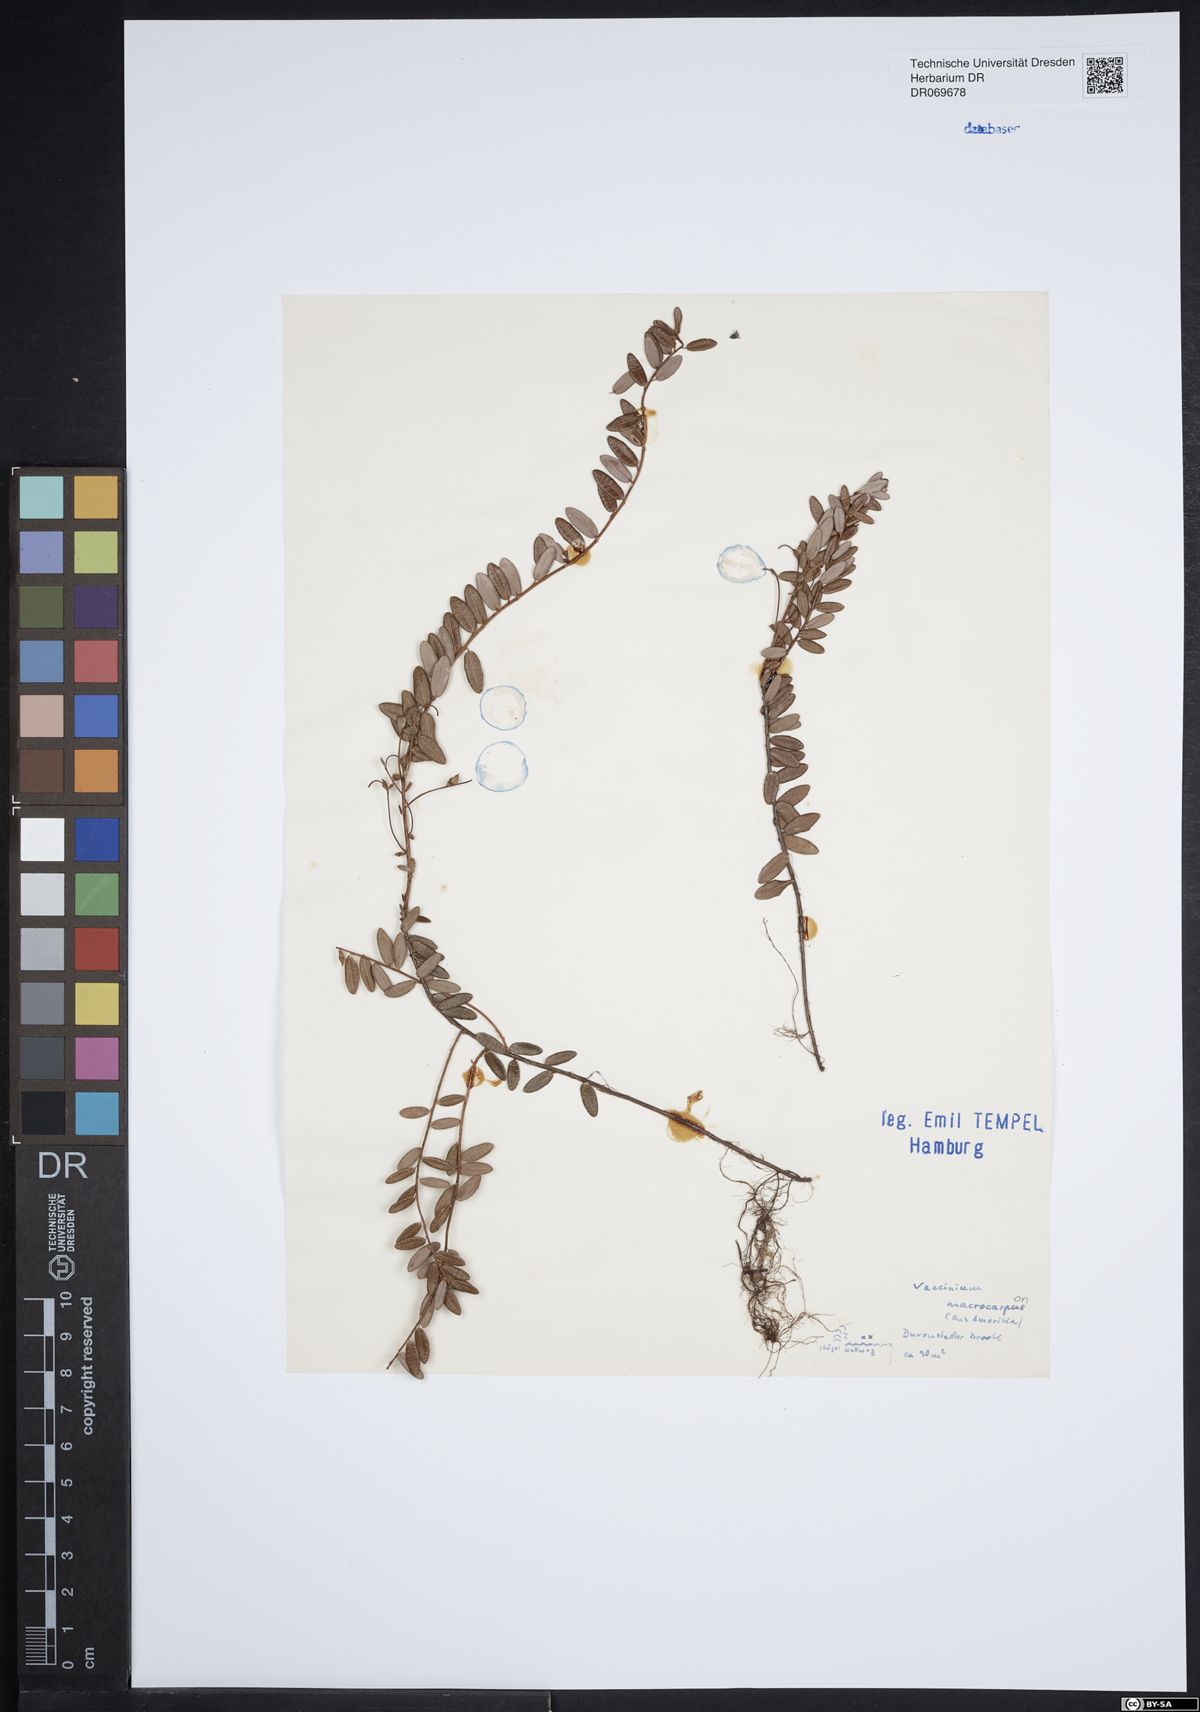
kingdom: Plantae
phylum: Tracheophyta
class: Magnoliopsida
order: Ericales
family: Ericaceae
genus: Vaccinium
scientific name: Vaccinium macrocarpon
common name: American cranberry
